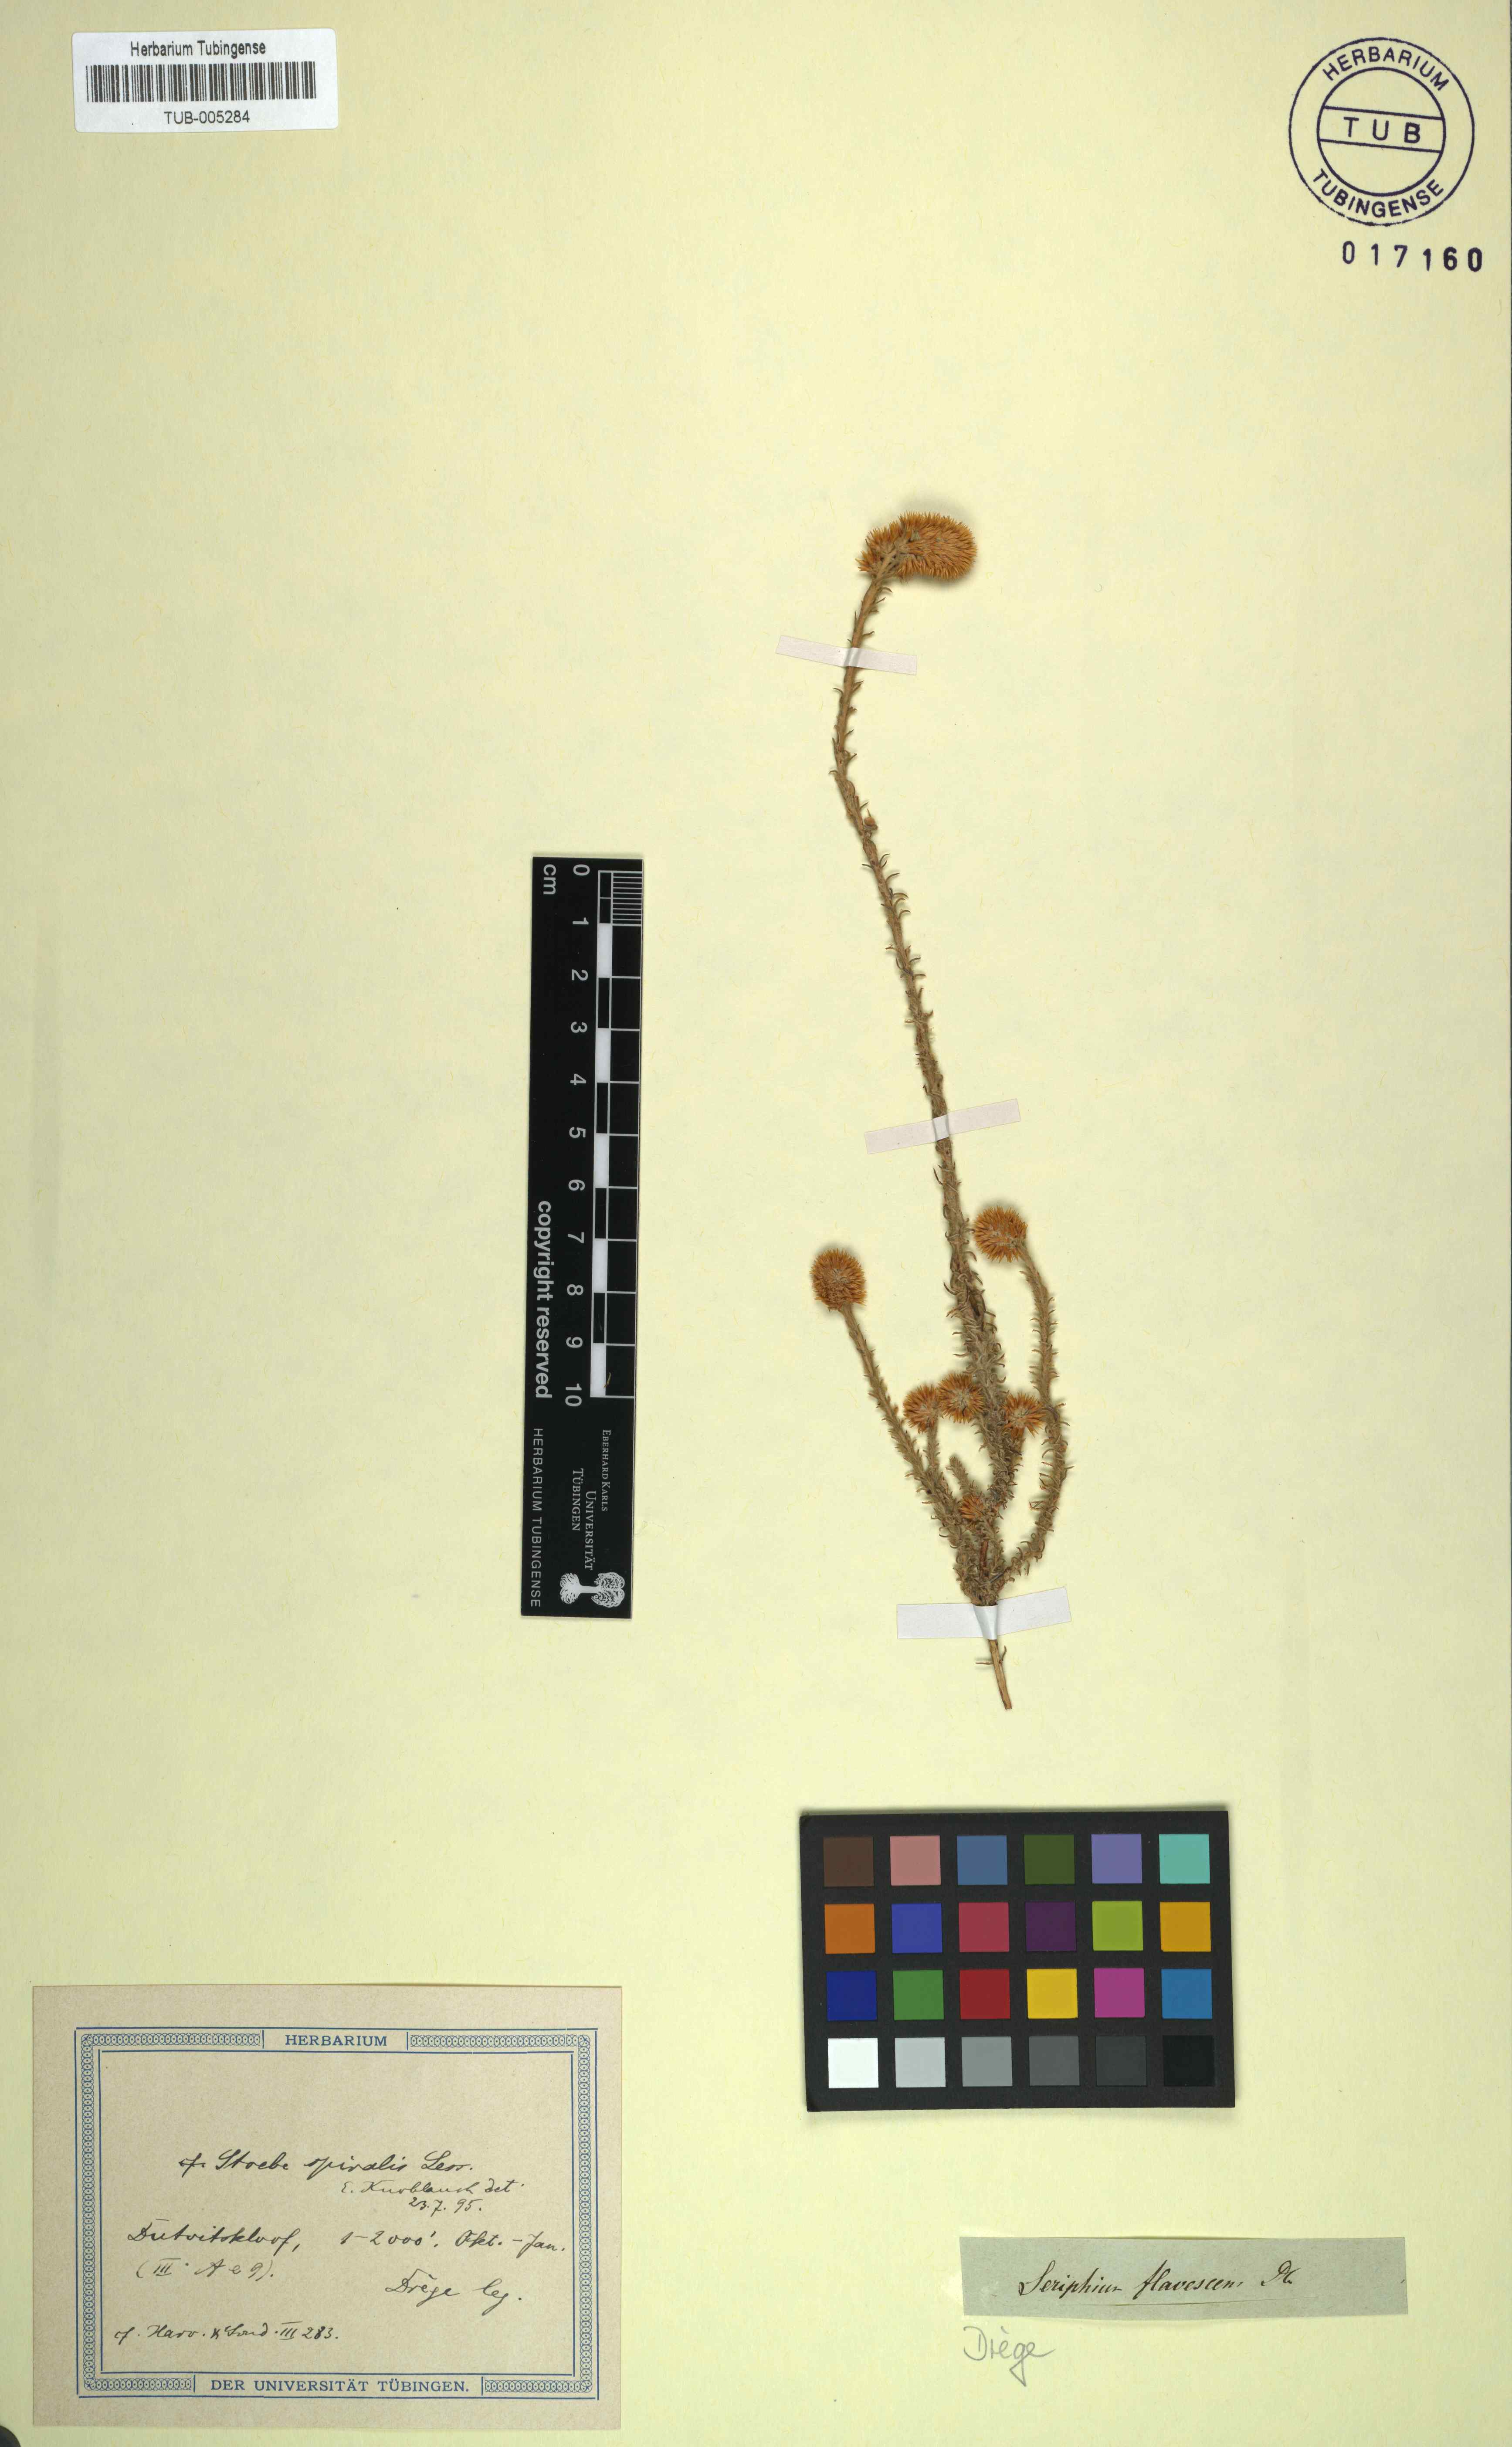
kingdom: Plantae
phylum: Tracheophyta
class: Magnoliopsida
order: Asterales
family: Asteraceae
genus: Seriphium
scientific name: Seriphium spirale
